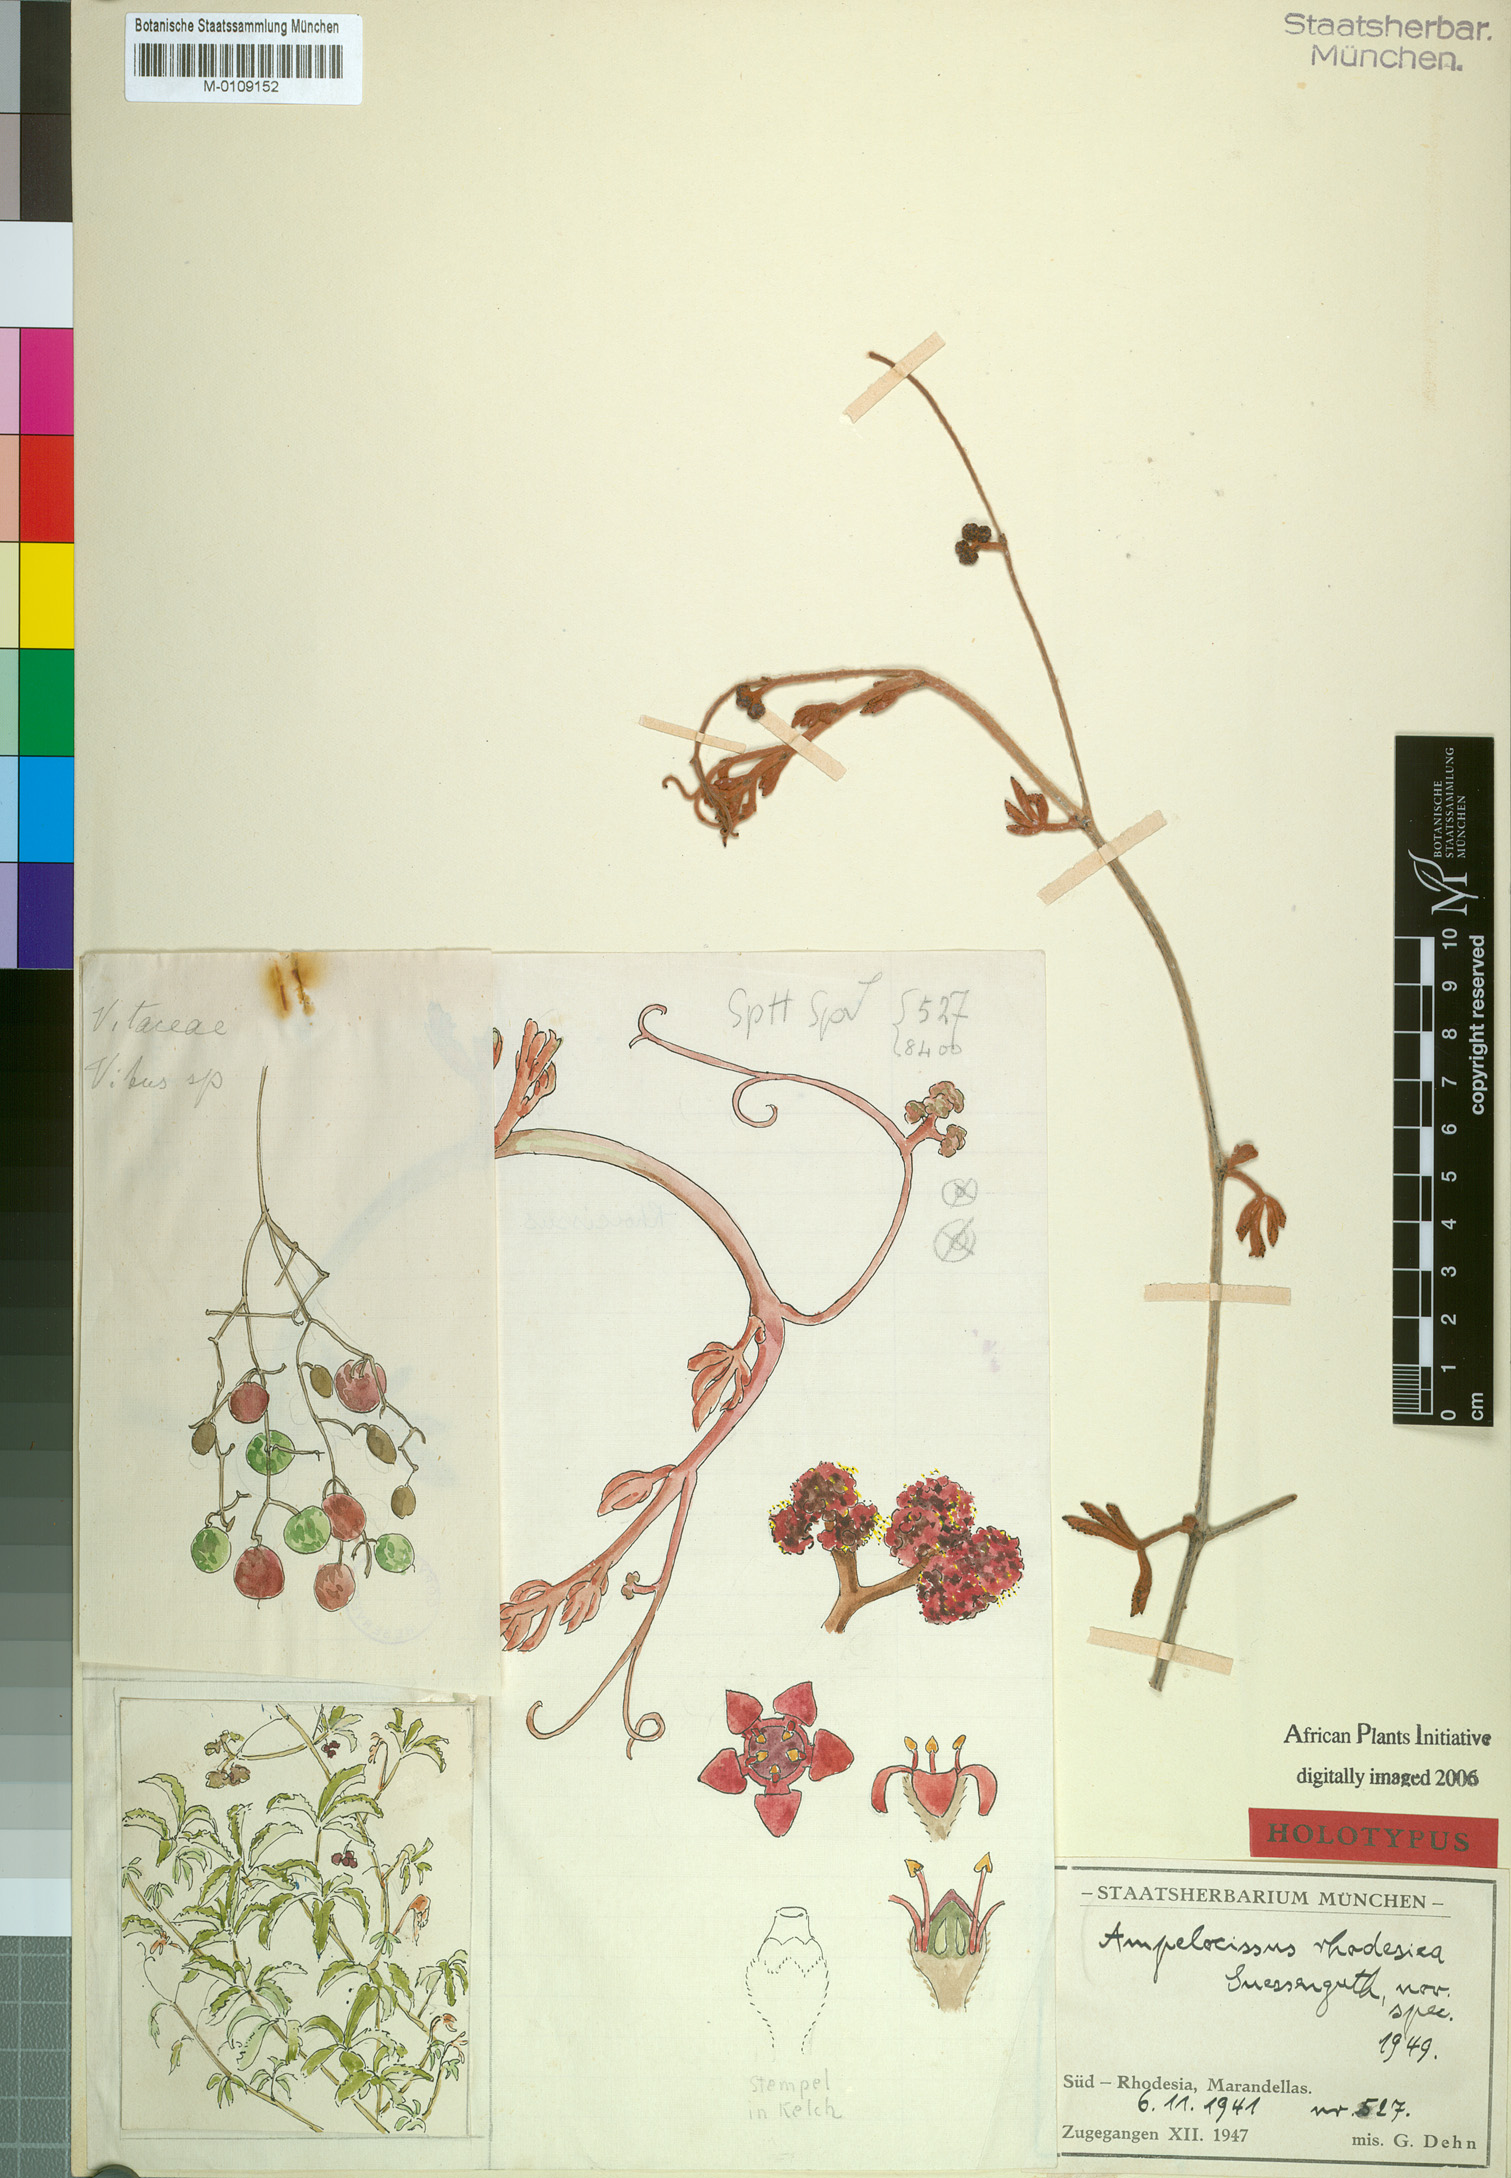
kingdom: Plantae
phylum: Tracheophyta
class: Magnoliopsida
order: Vitales
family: Vitaceae
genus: Ampelocissus
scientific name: Ampelocissus obtusata
